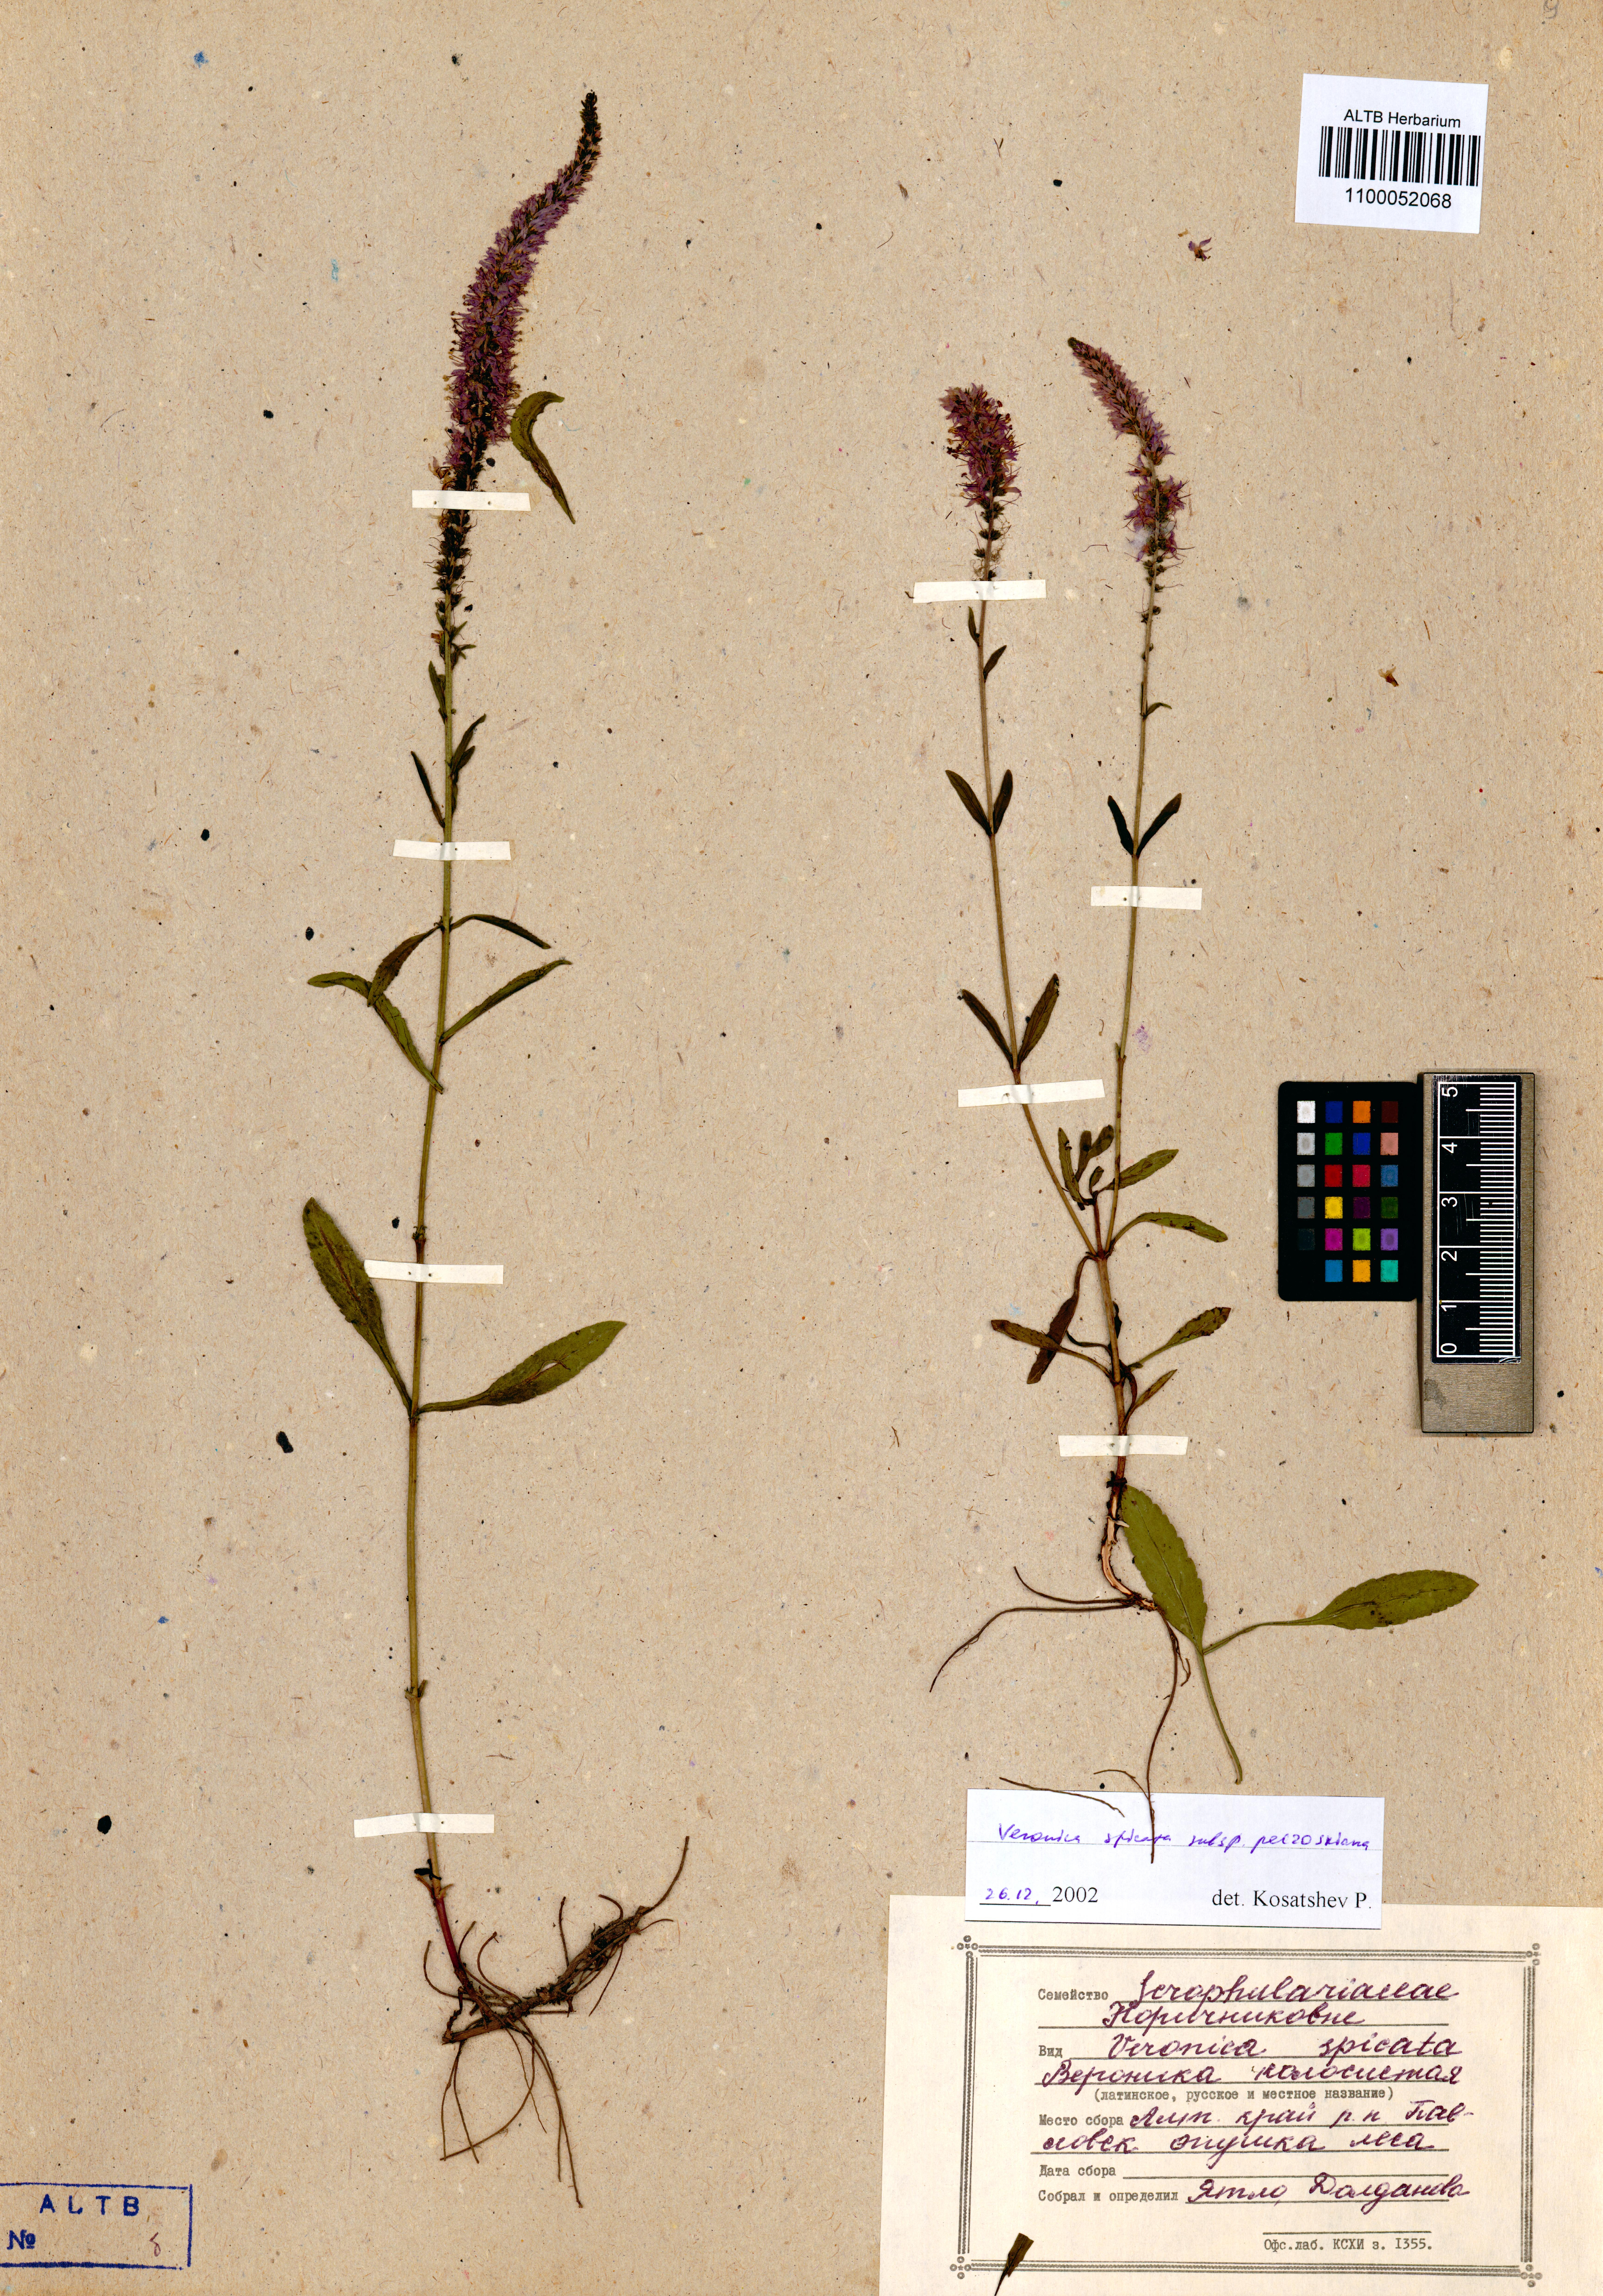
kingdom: Plantae
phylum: Tracheophyta
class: Magnoliopsida
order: Lamiales
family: Plantaginaceae
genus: Veronica
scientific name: Veronica spicata
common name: Spiked speedwell
